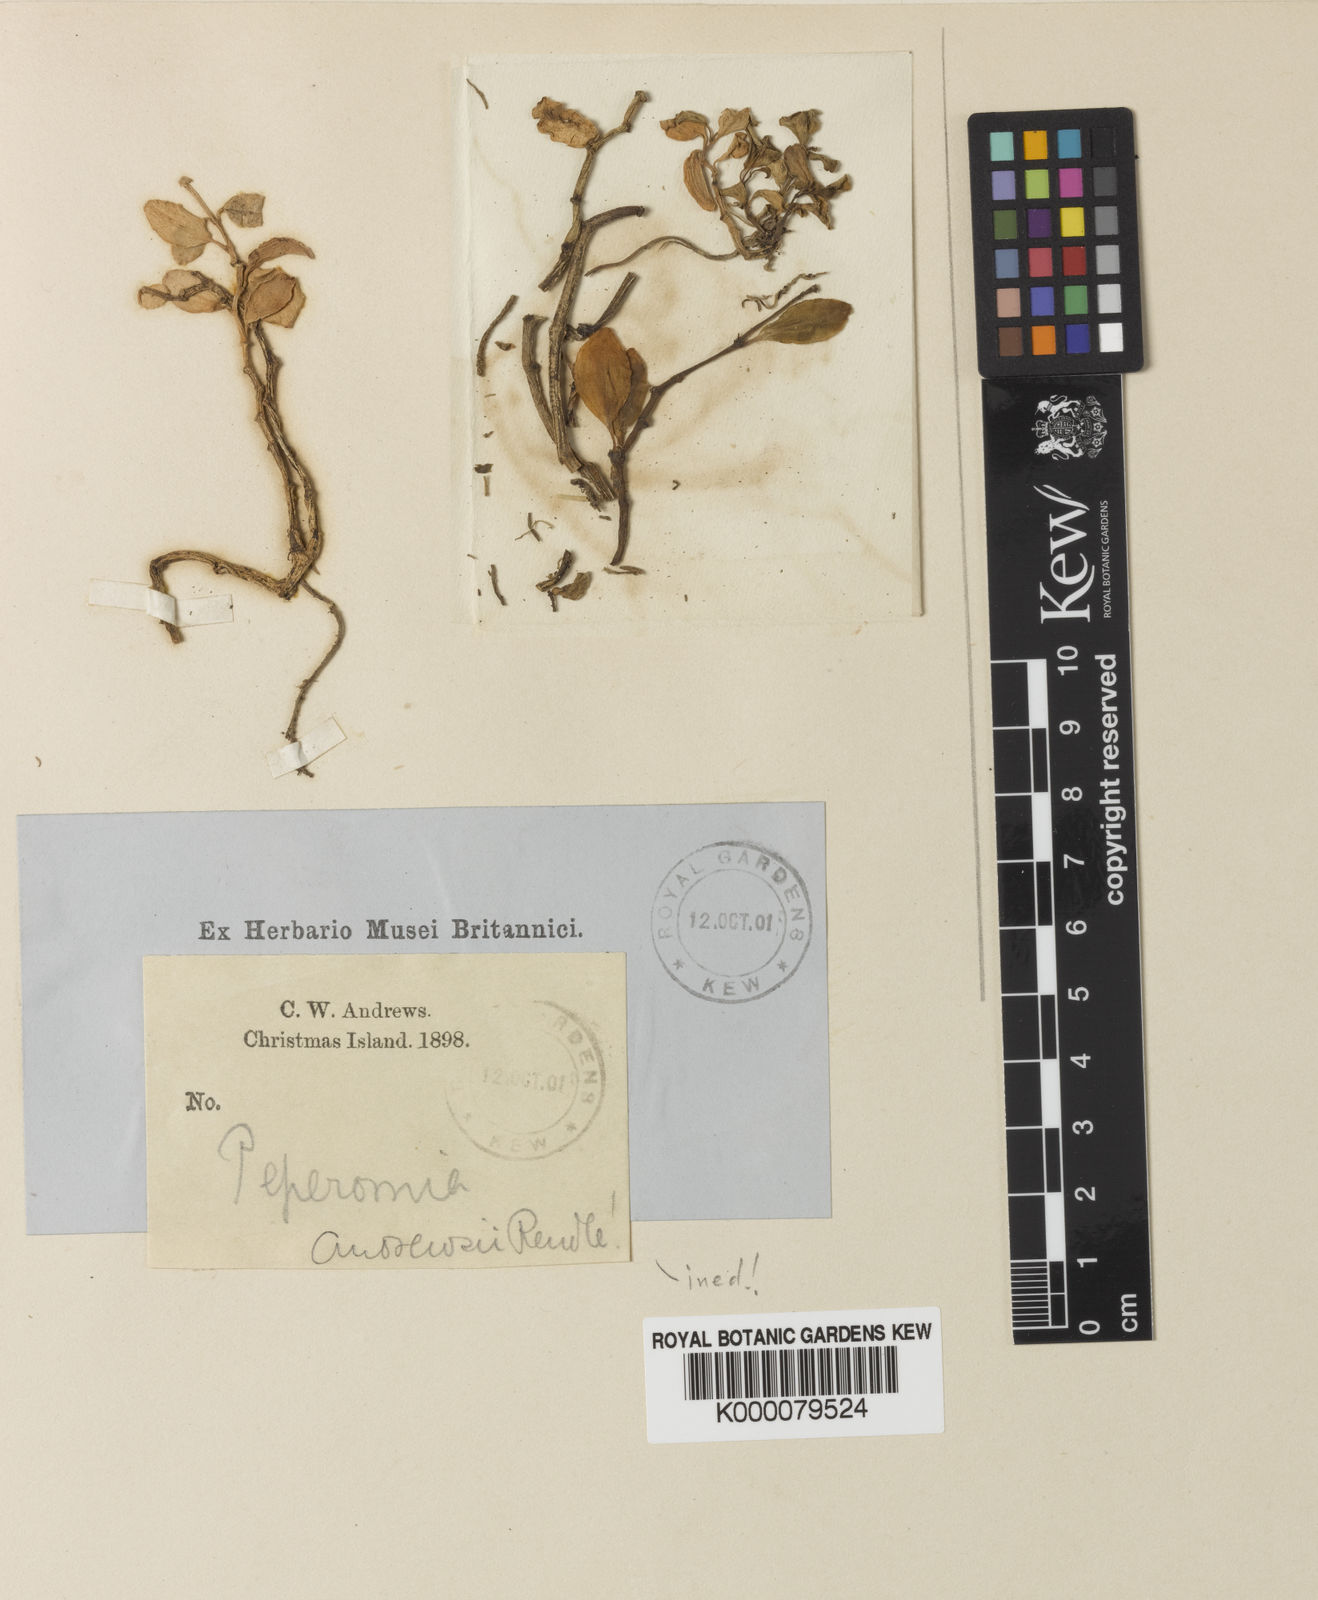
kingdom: Plantae
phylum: Tracheophyta
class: Magnoliopsida
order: Piperales
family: Piperaceae
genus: Peperomia
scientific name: Peperomia rossii
